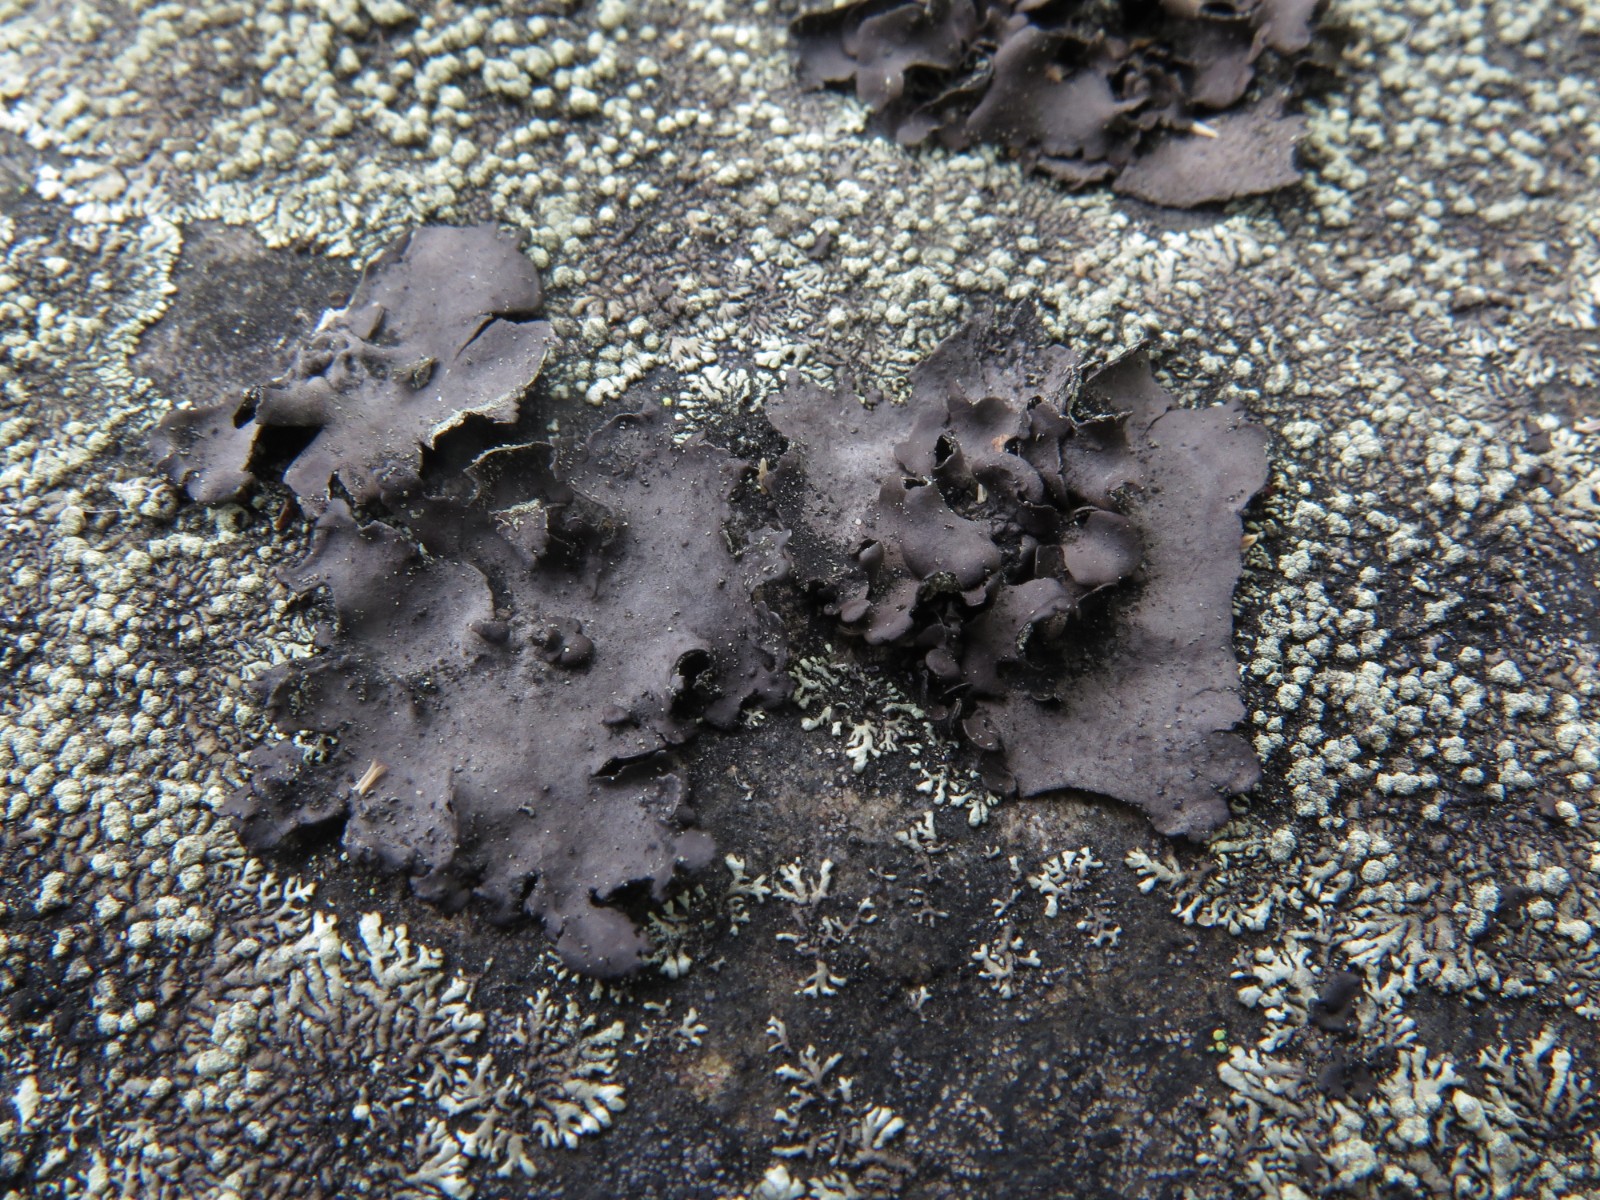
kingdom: Fungi
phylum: Ascomycota
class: Lecanoromycetes
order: Umbilicariales
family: Umbilicariaceae
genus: Umbilicaria
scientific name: Umbilicaria polyphylla
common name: glat navlelav
